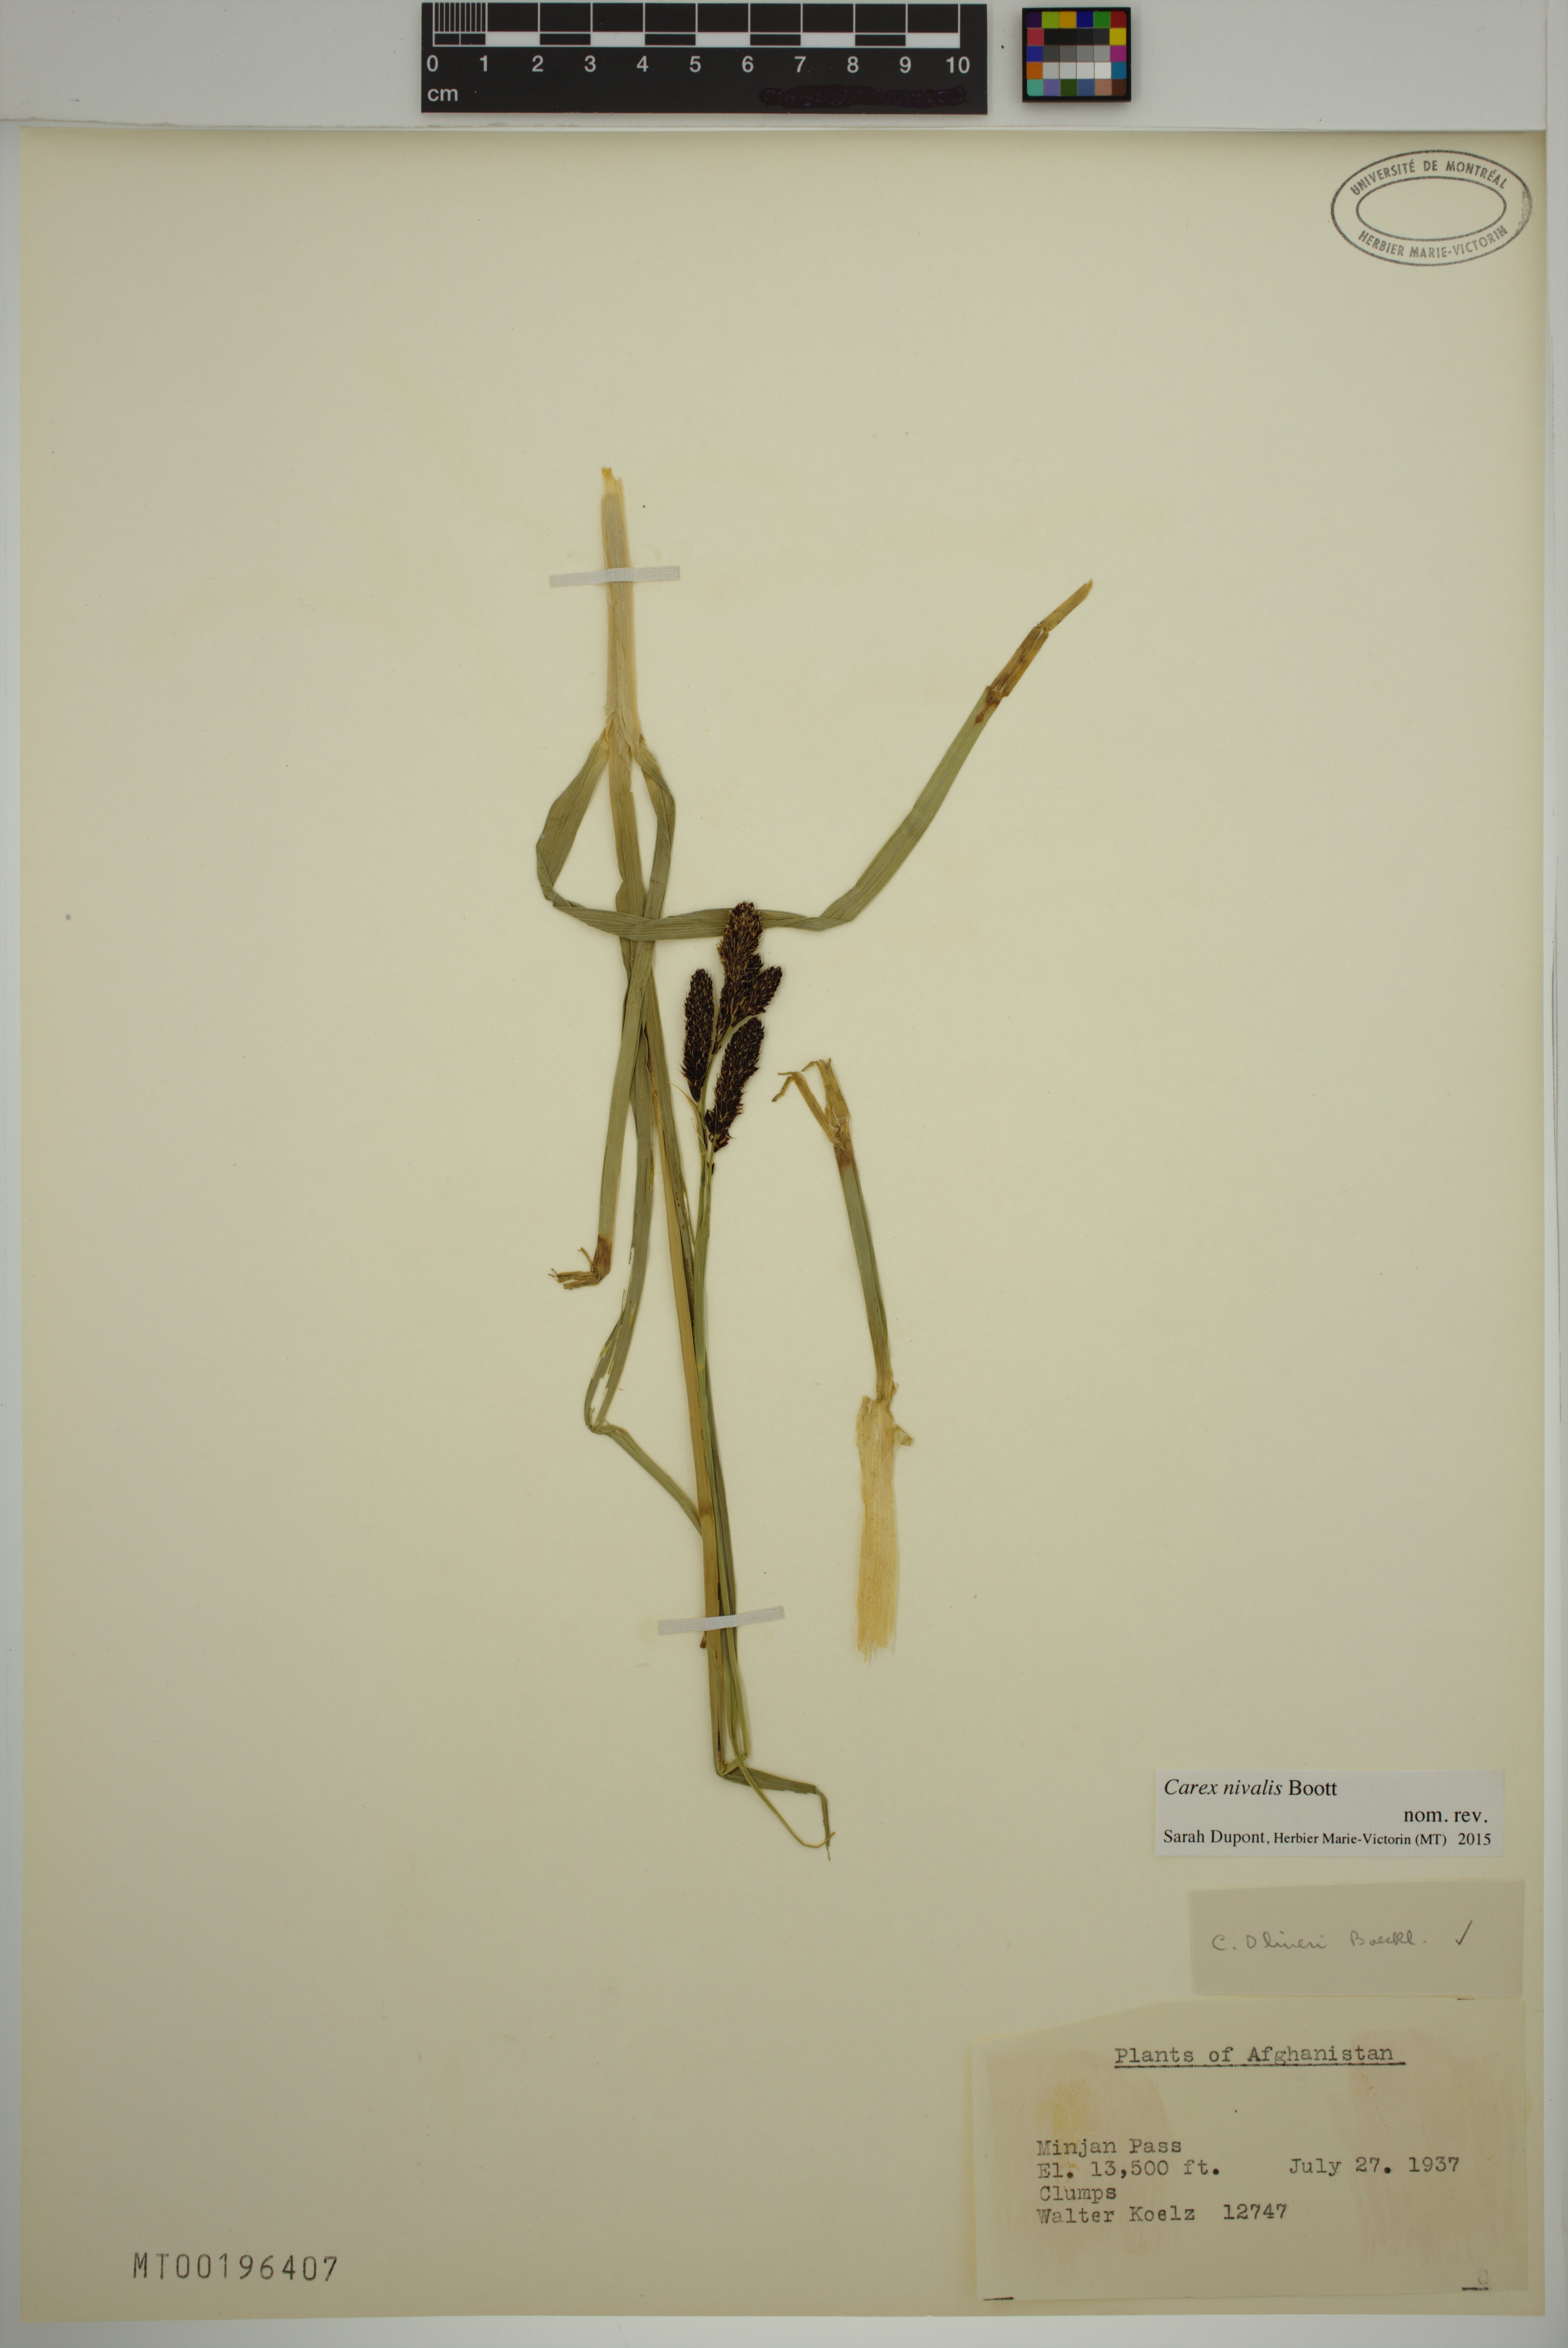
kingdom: Plantae
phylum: Tracheophyta
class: Liliopsida
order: Poales
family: Cyperaceae
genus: Carex
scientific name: Carex nivalis
